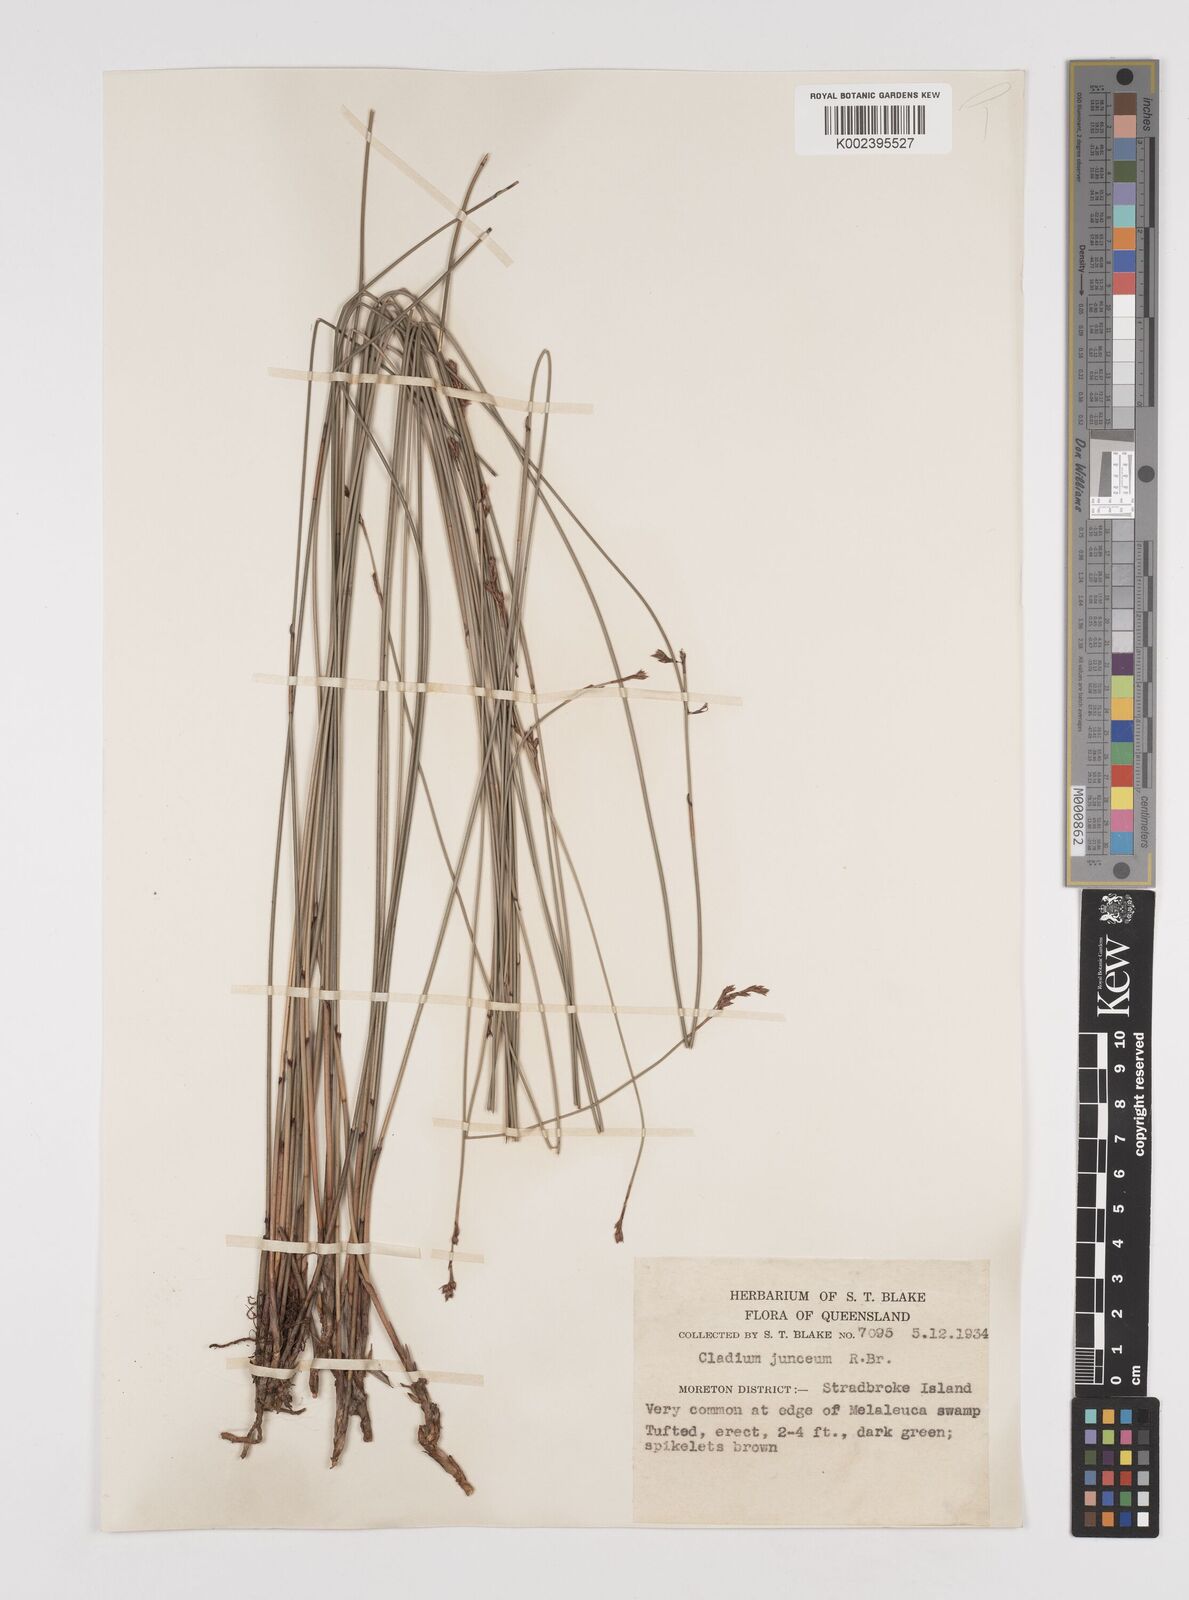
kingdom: Plantae
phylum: Tracheophyta
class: Liliopsida
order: Poales
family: Cyperaceae
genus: Machaerina
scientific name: Machaerina juncea
